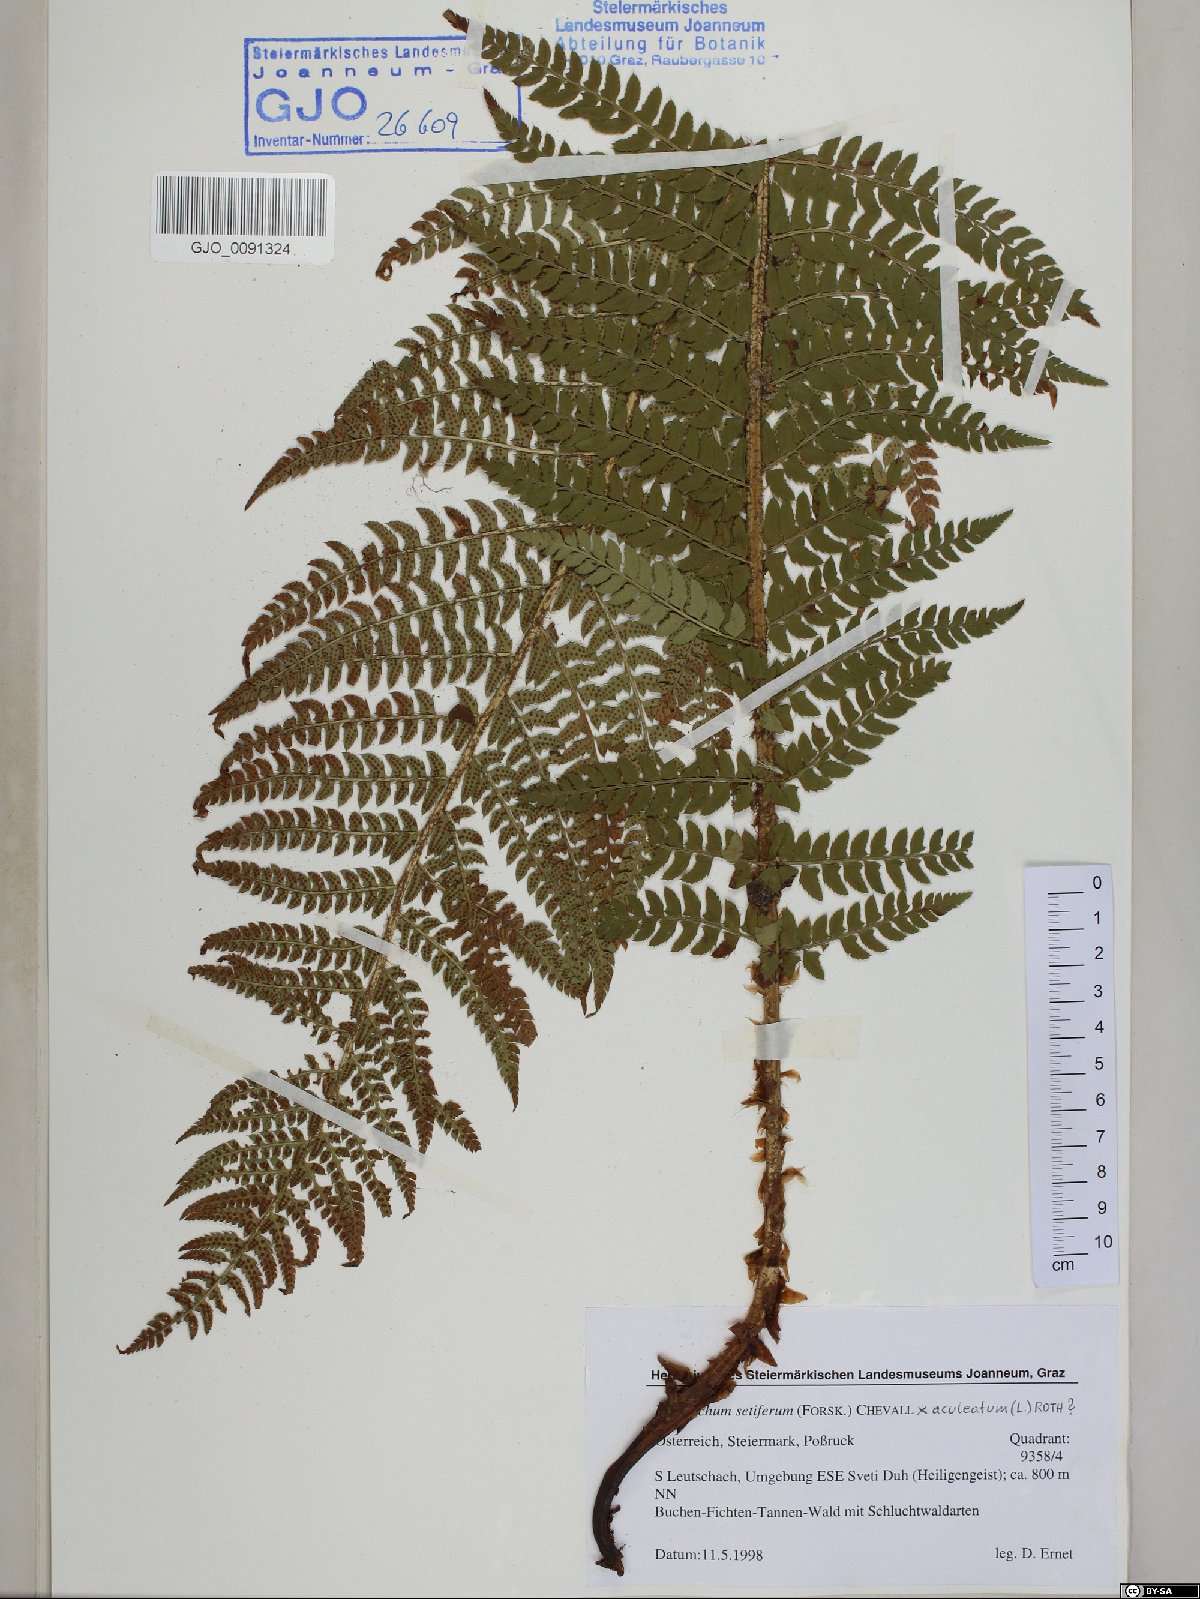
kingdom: Plantae
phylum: Tracheophyta
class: Polypodiopsida
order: Polypodiales
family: Dryopteridaceae
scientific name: Dryopteridaceae
